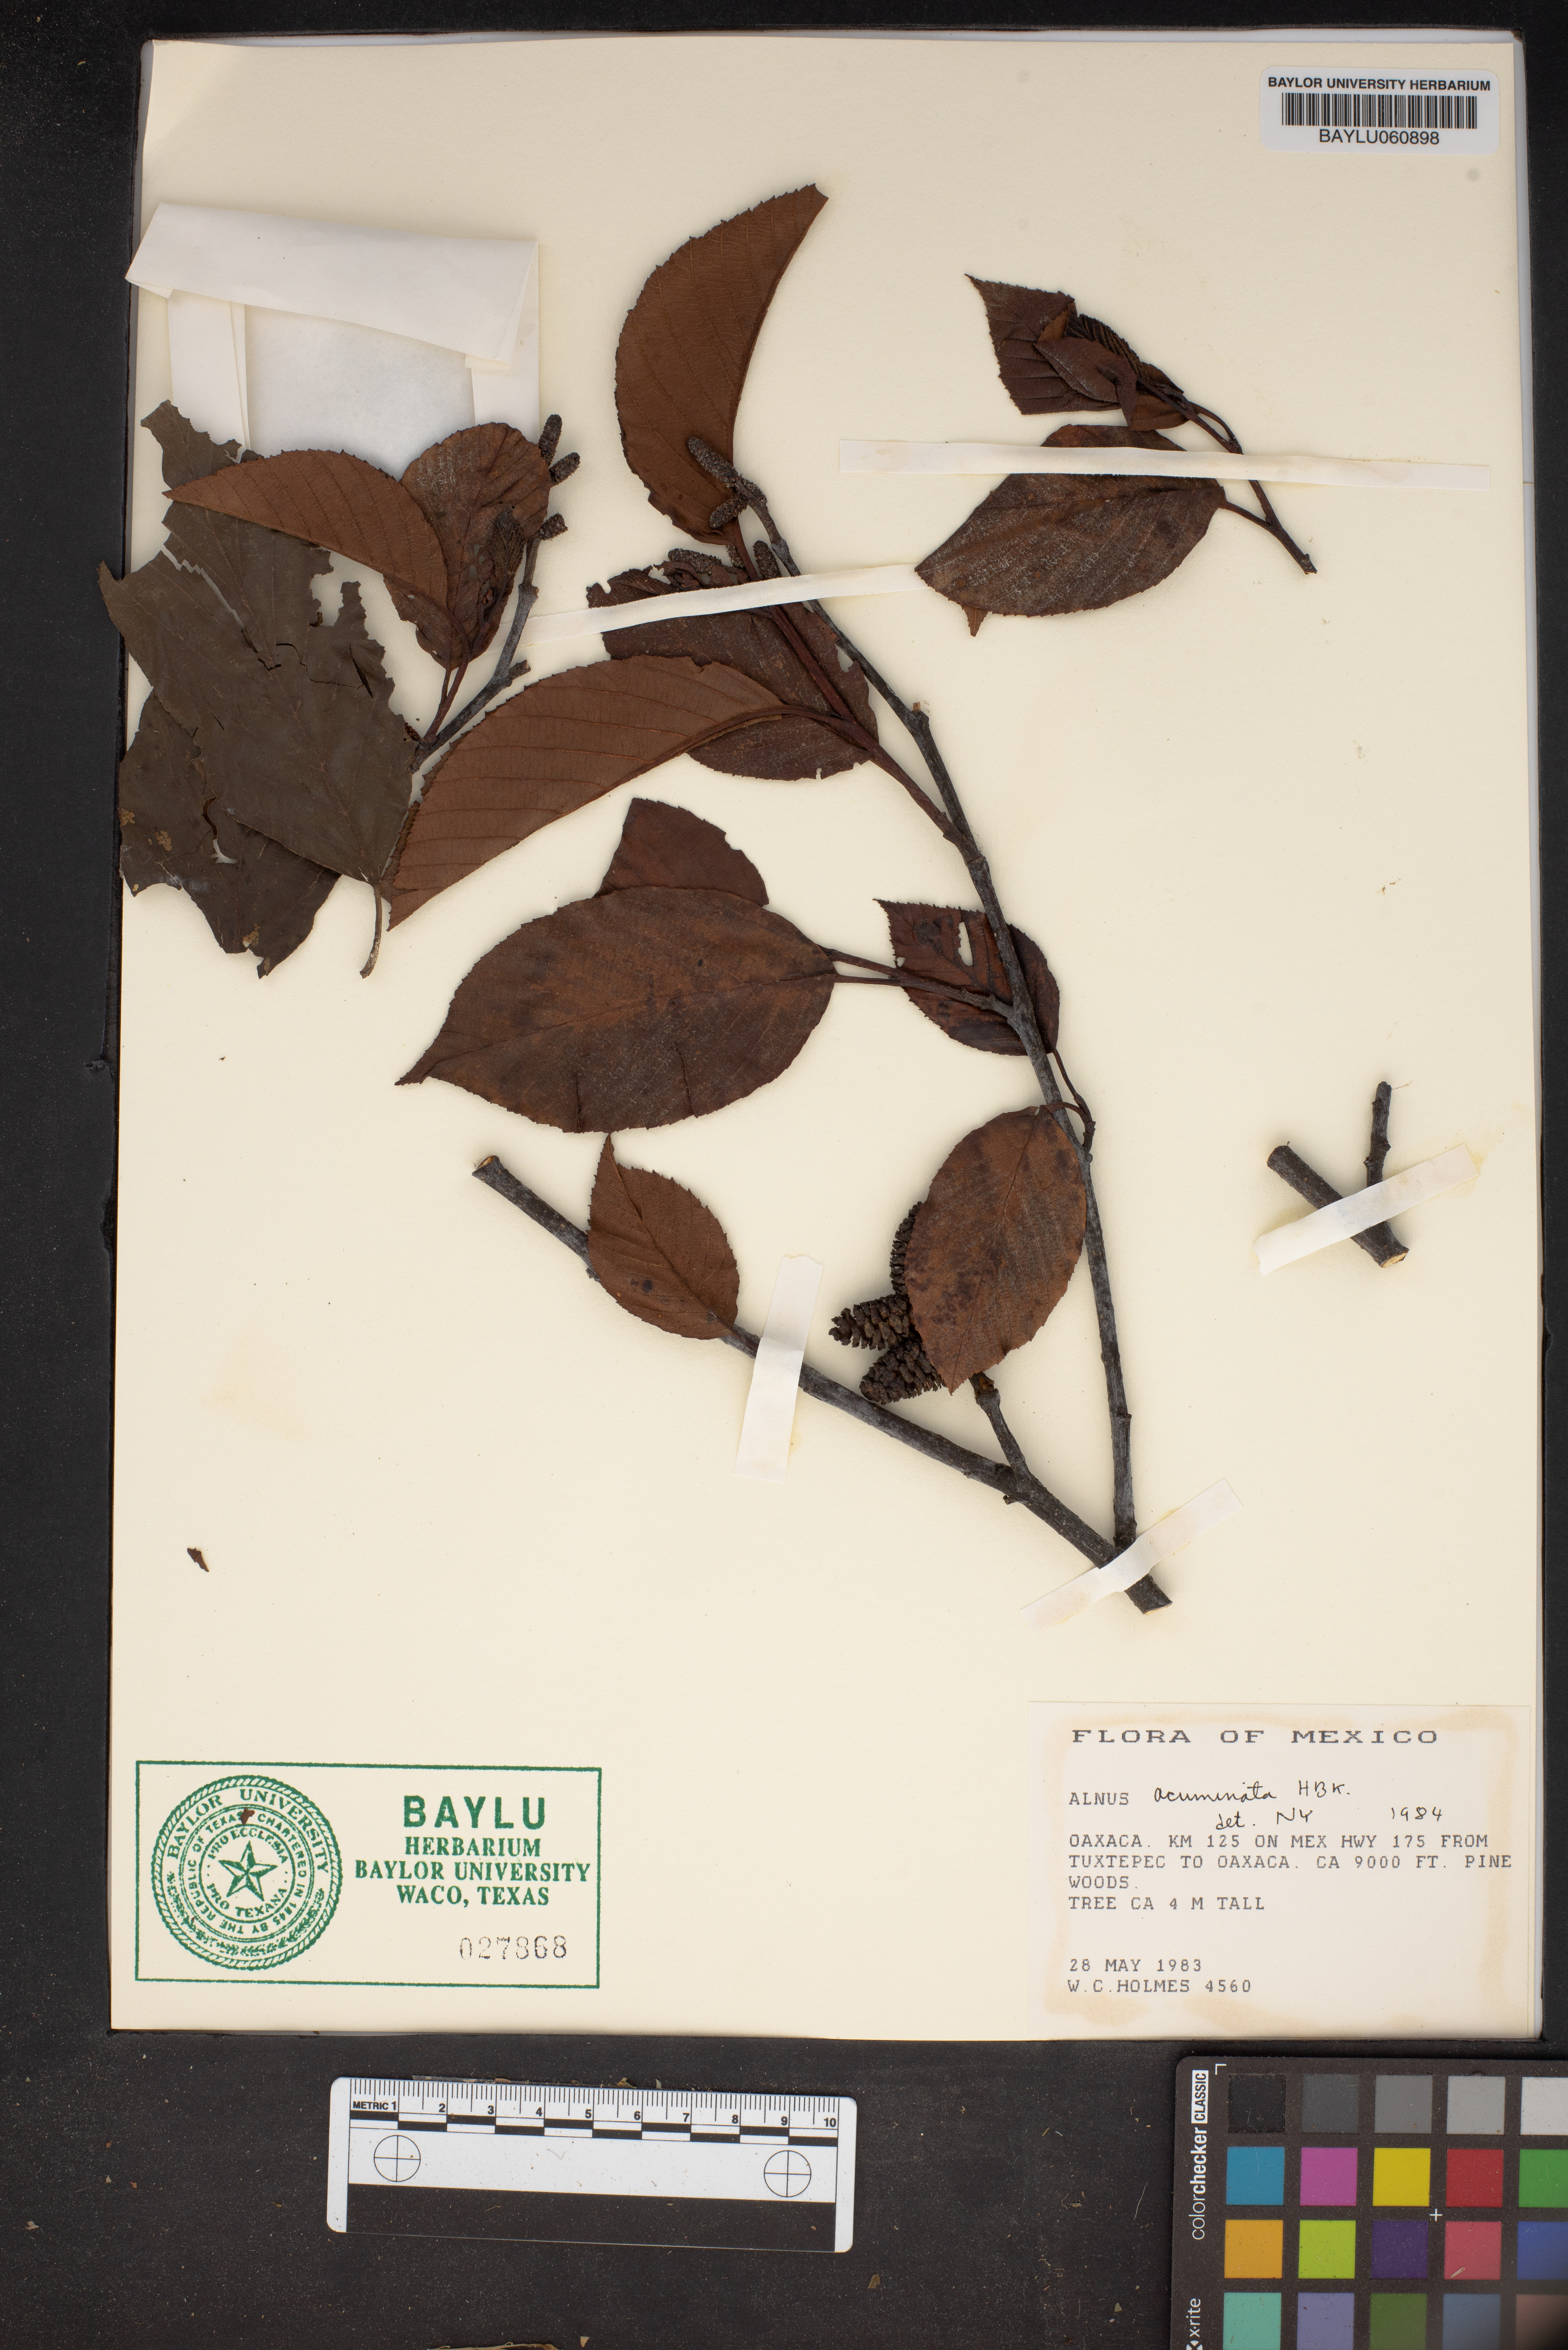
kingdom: Plantae
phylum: Tracheophyta
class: Magnoliopsida
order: Fagales
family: Betulaceae
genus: Alnus
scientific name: Alnus acuminata
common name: Alder
